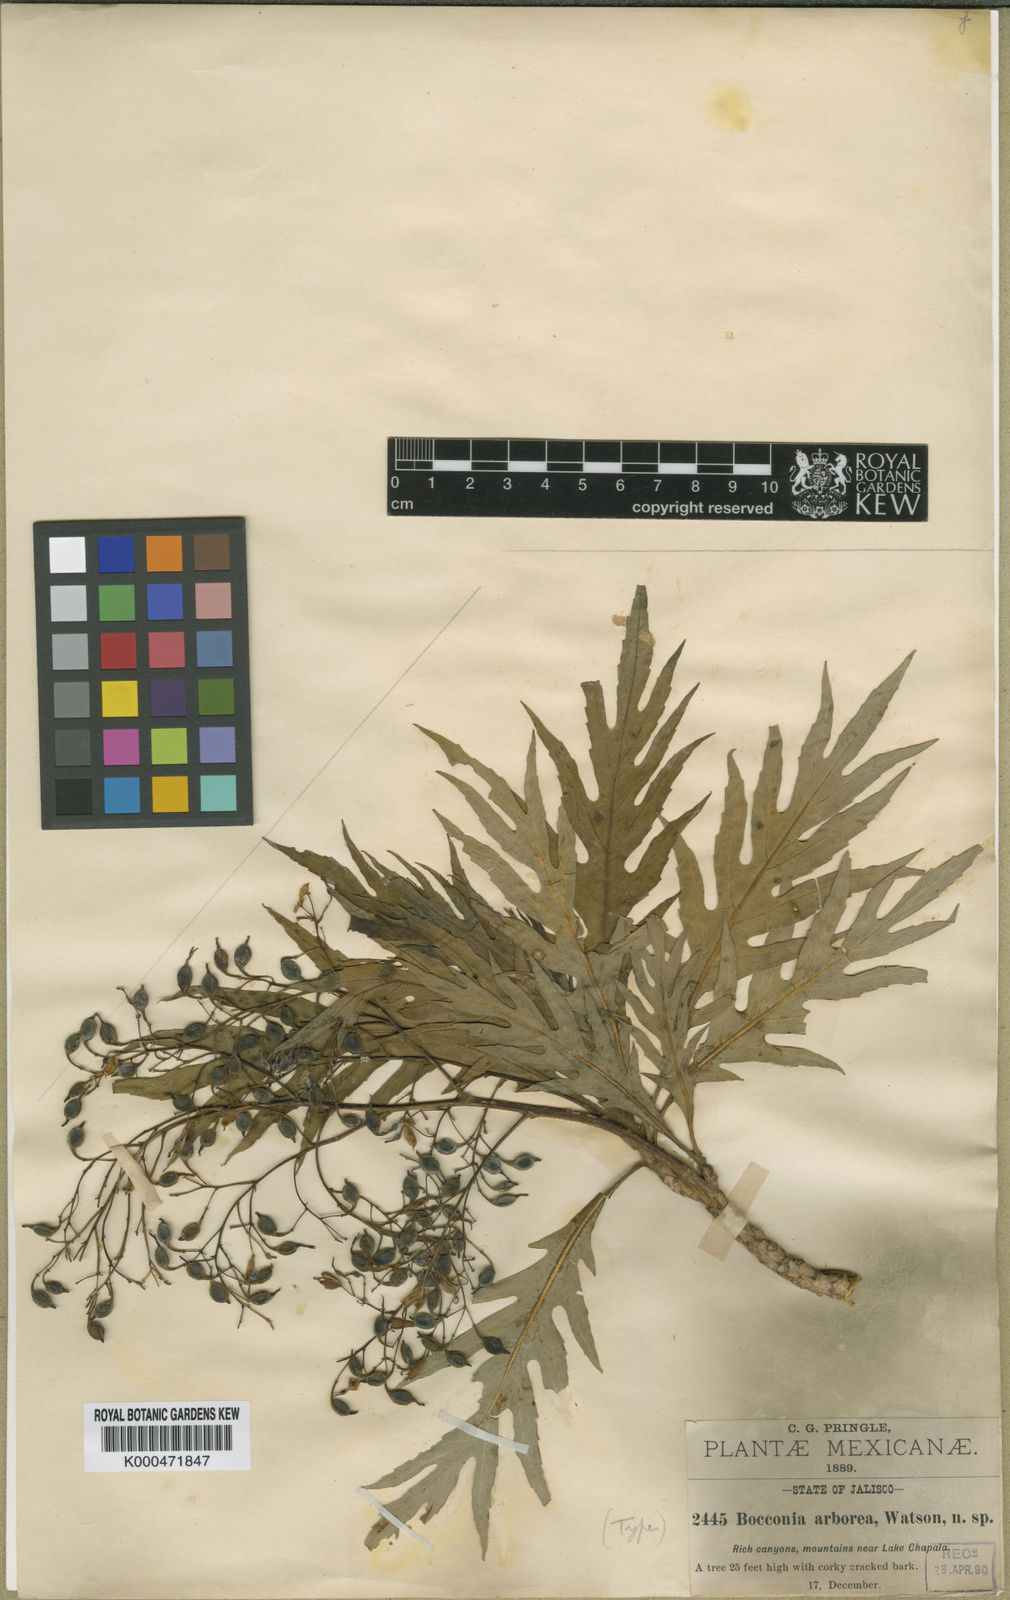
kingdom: Plantae
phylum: Tracheophyta
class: Magnoliopsida
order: Ranunculales
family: Papaveraceae
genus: Bocconia
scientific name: Bocconia arborea
